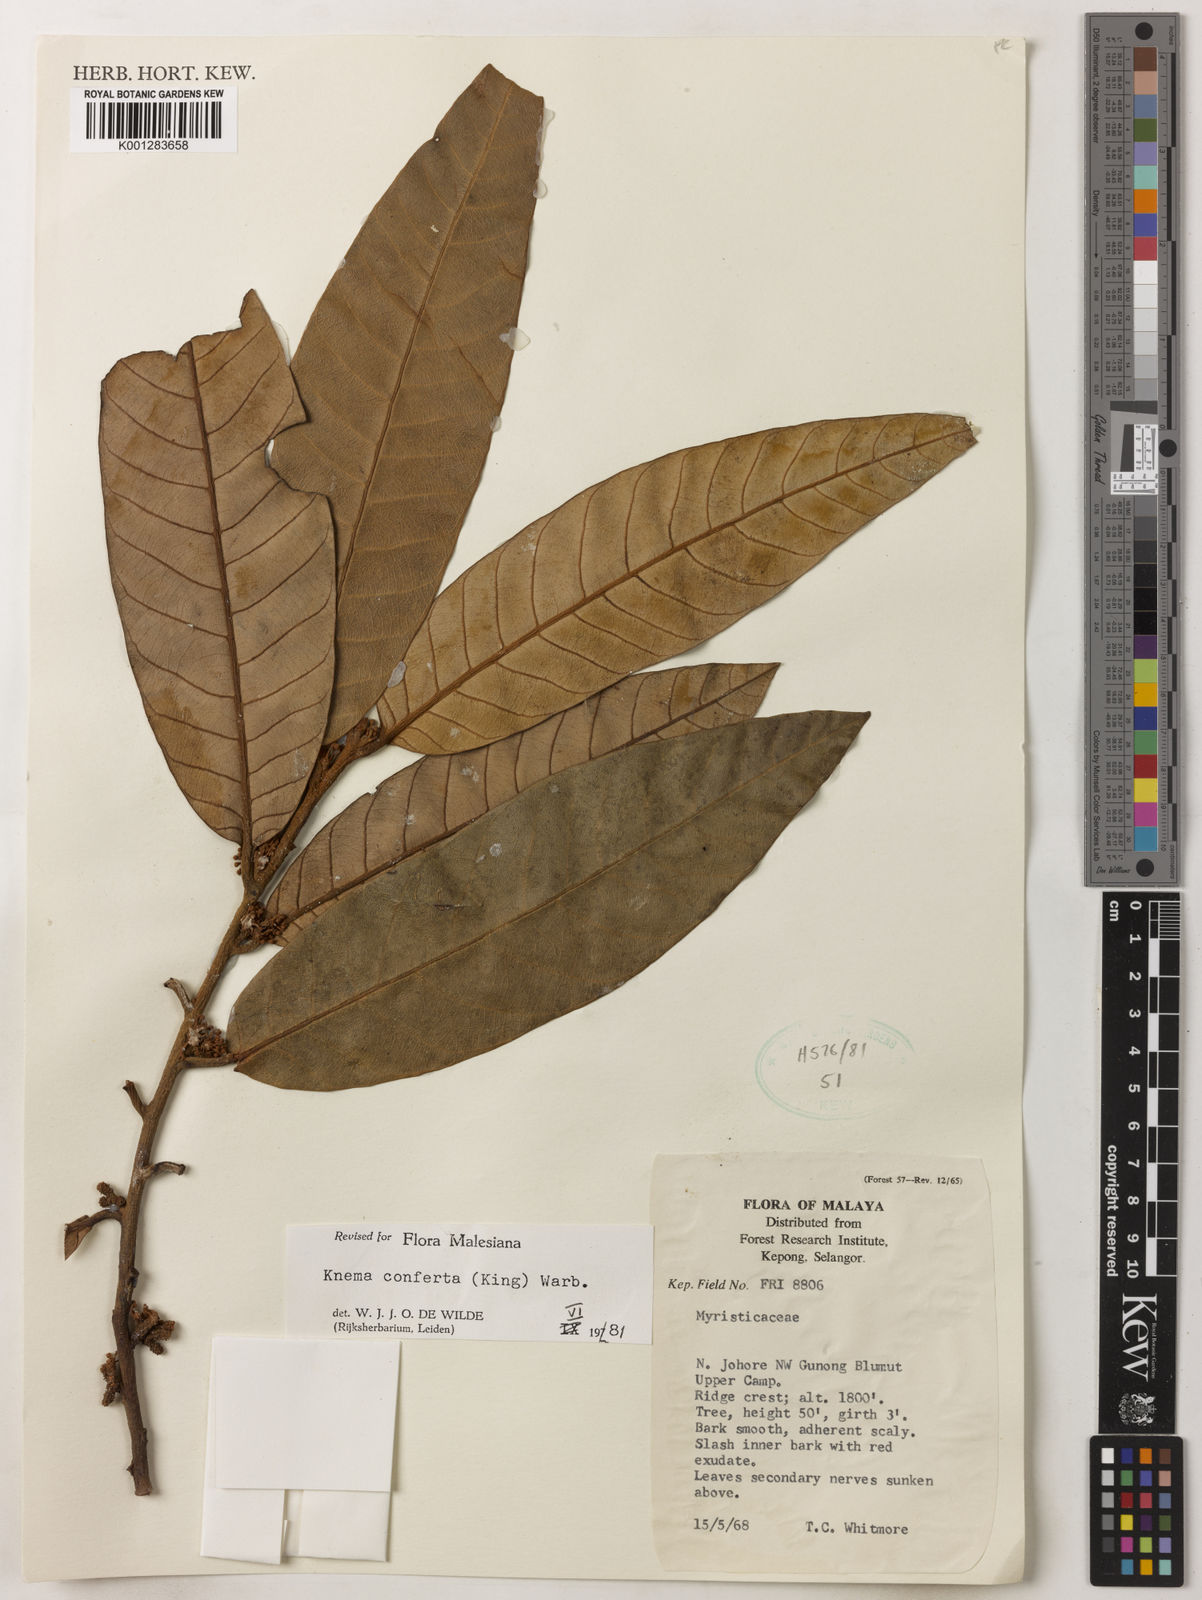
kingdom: Plantae
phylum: Tracheophyta
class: Magnoliopsida
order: Magnoliales
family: Myristicaceae
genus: Knema
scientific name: Knema conferta
